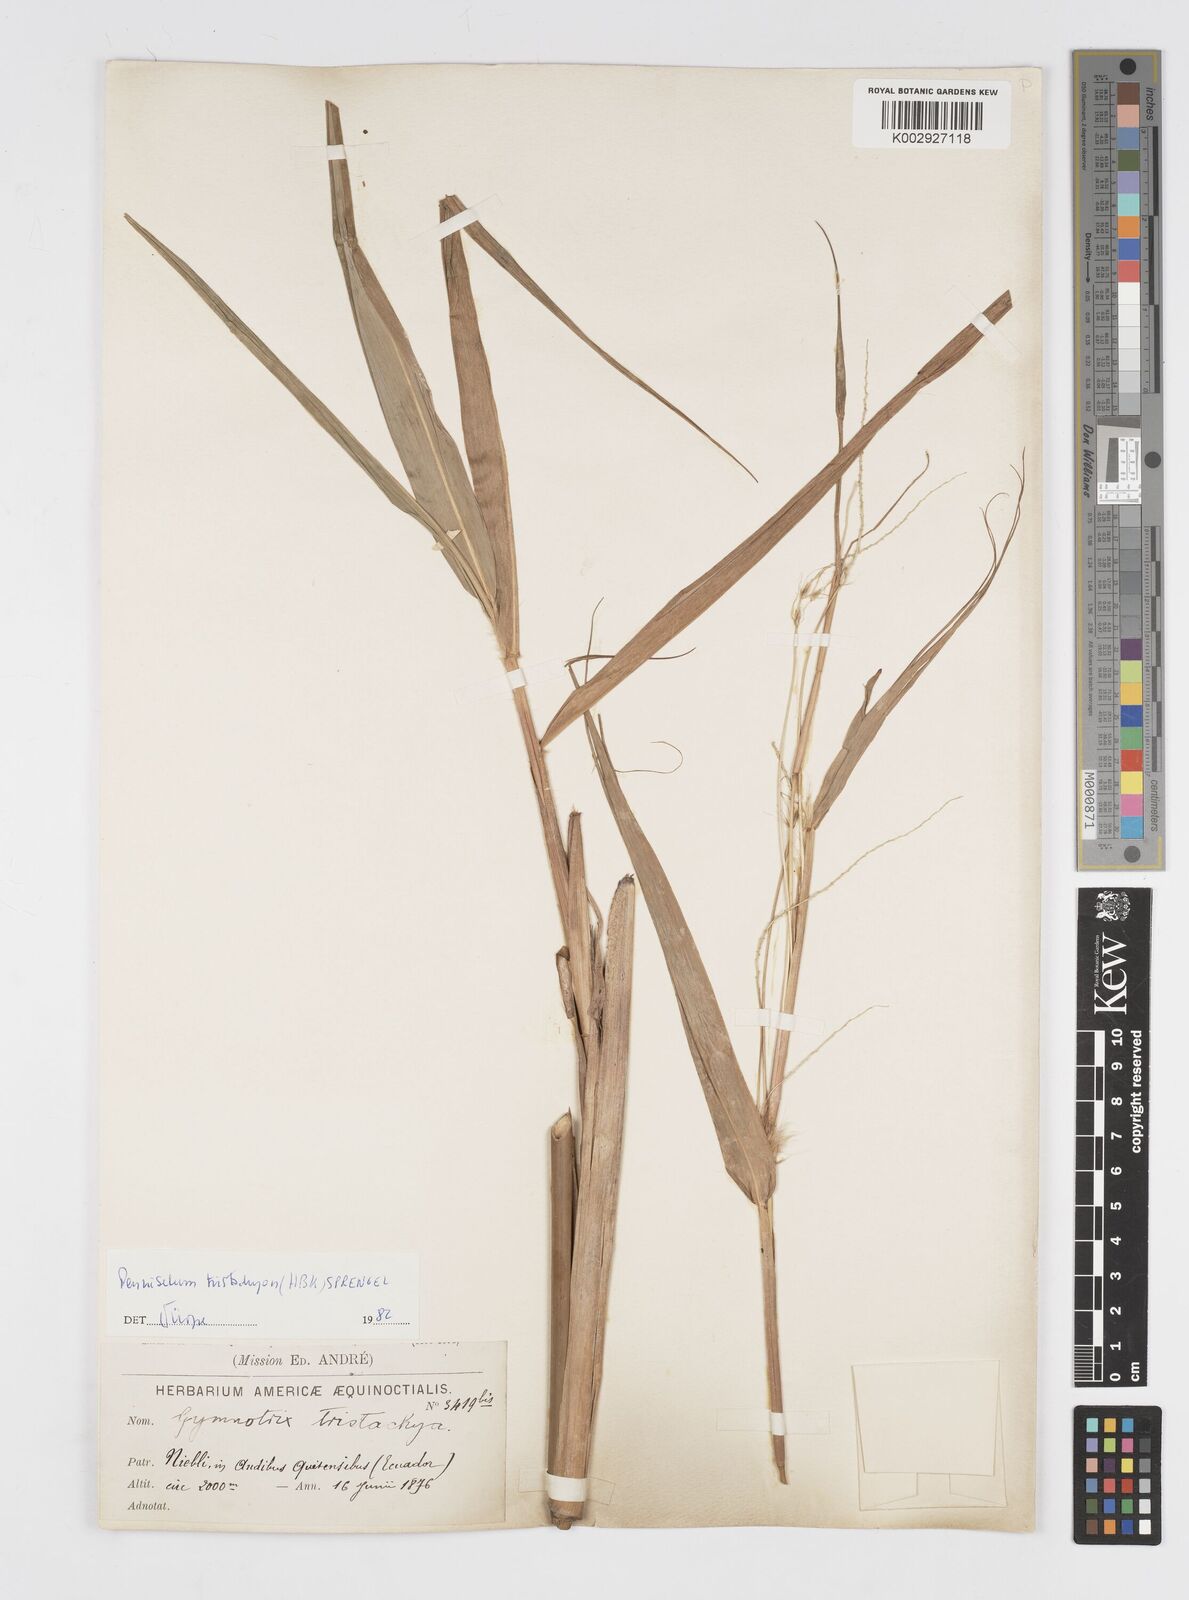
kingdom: Plantae
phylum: Tracheophyta
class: Liliopsida
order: Poales
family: Poaceae
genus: Cenchrus
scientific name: Cenchrus tristachyus
